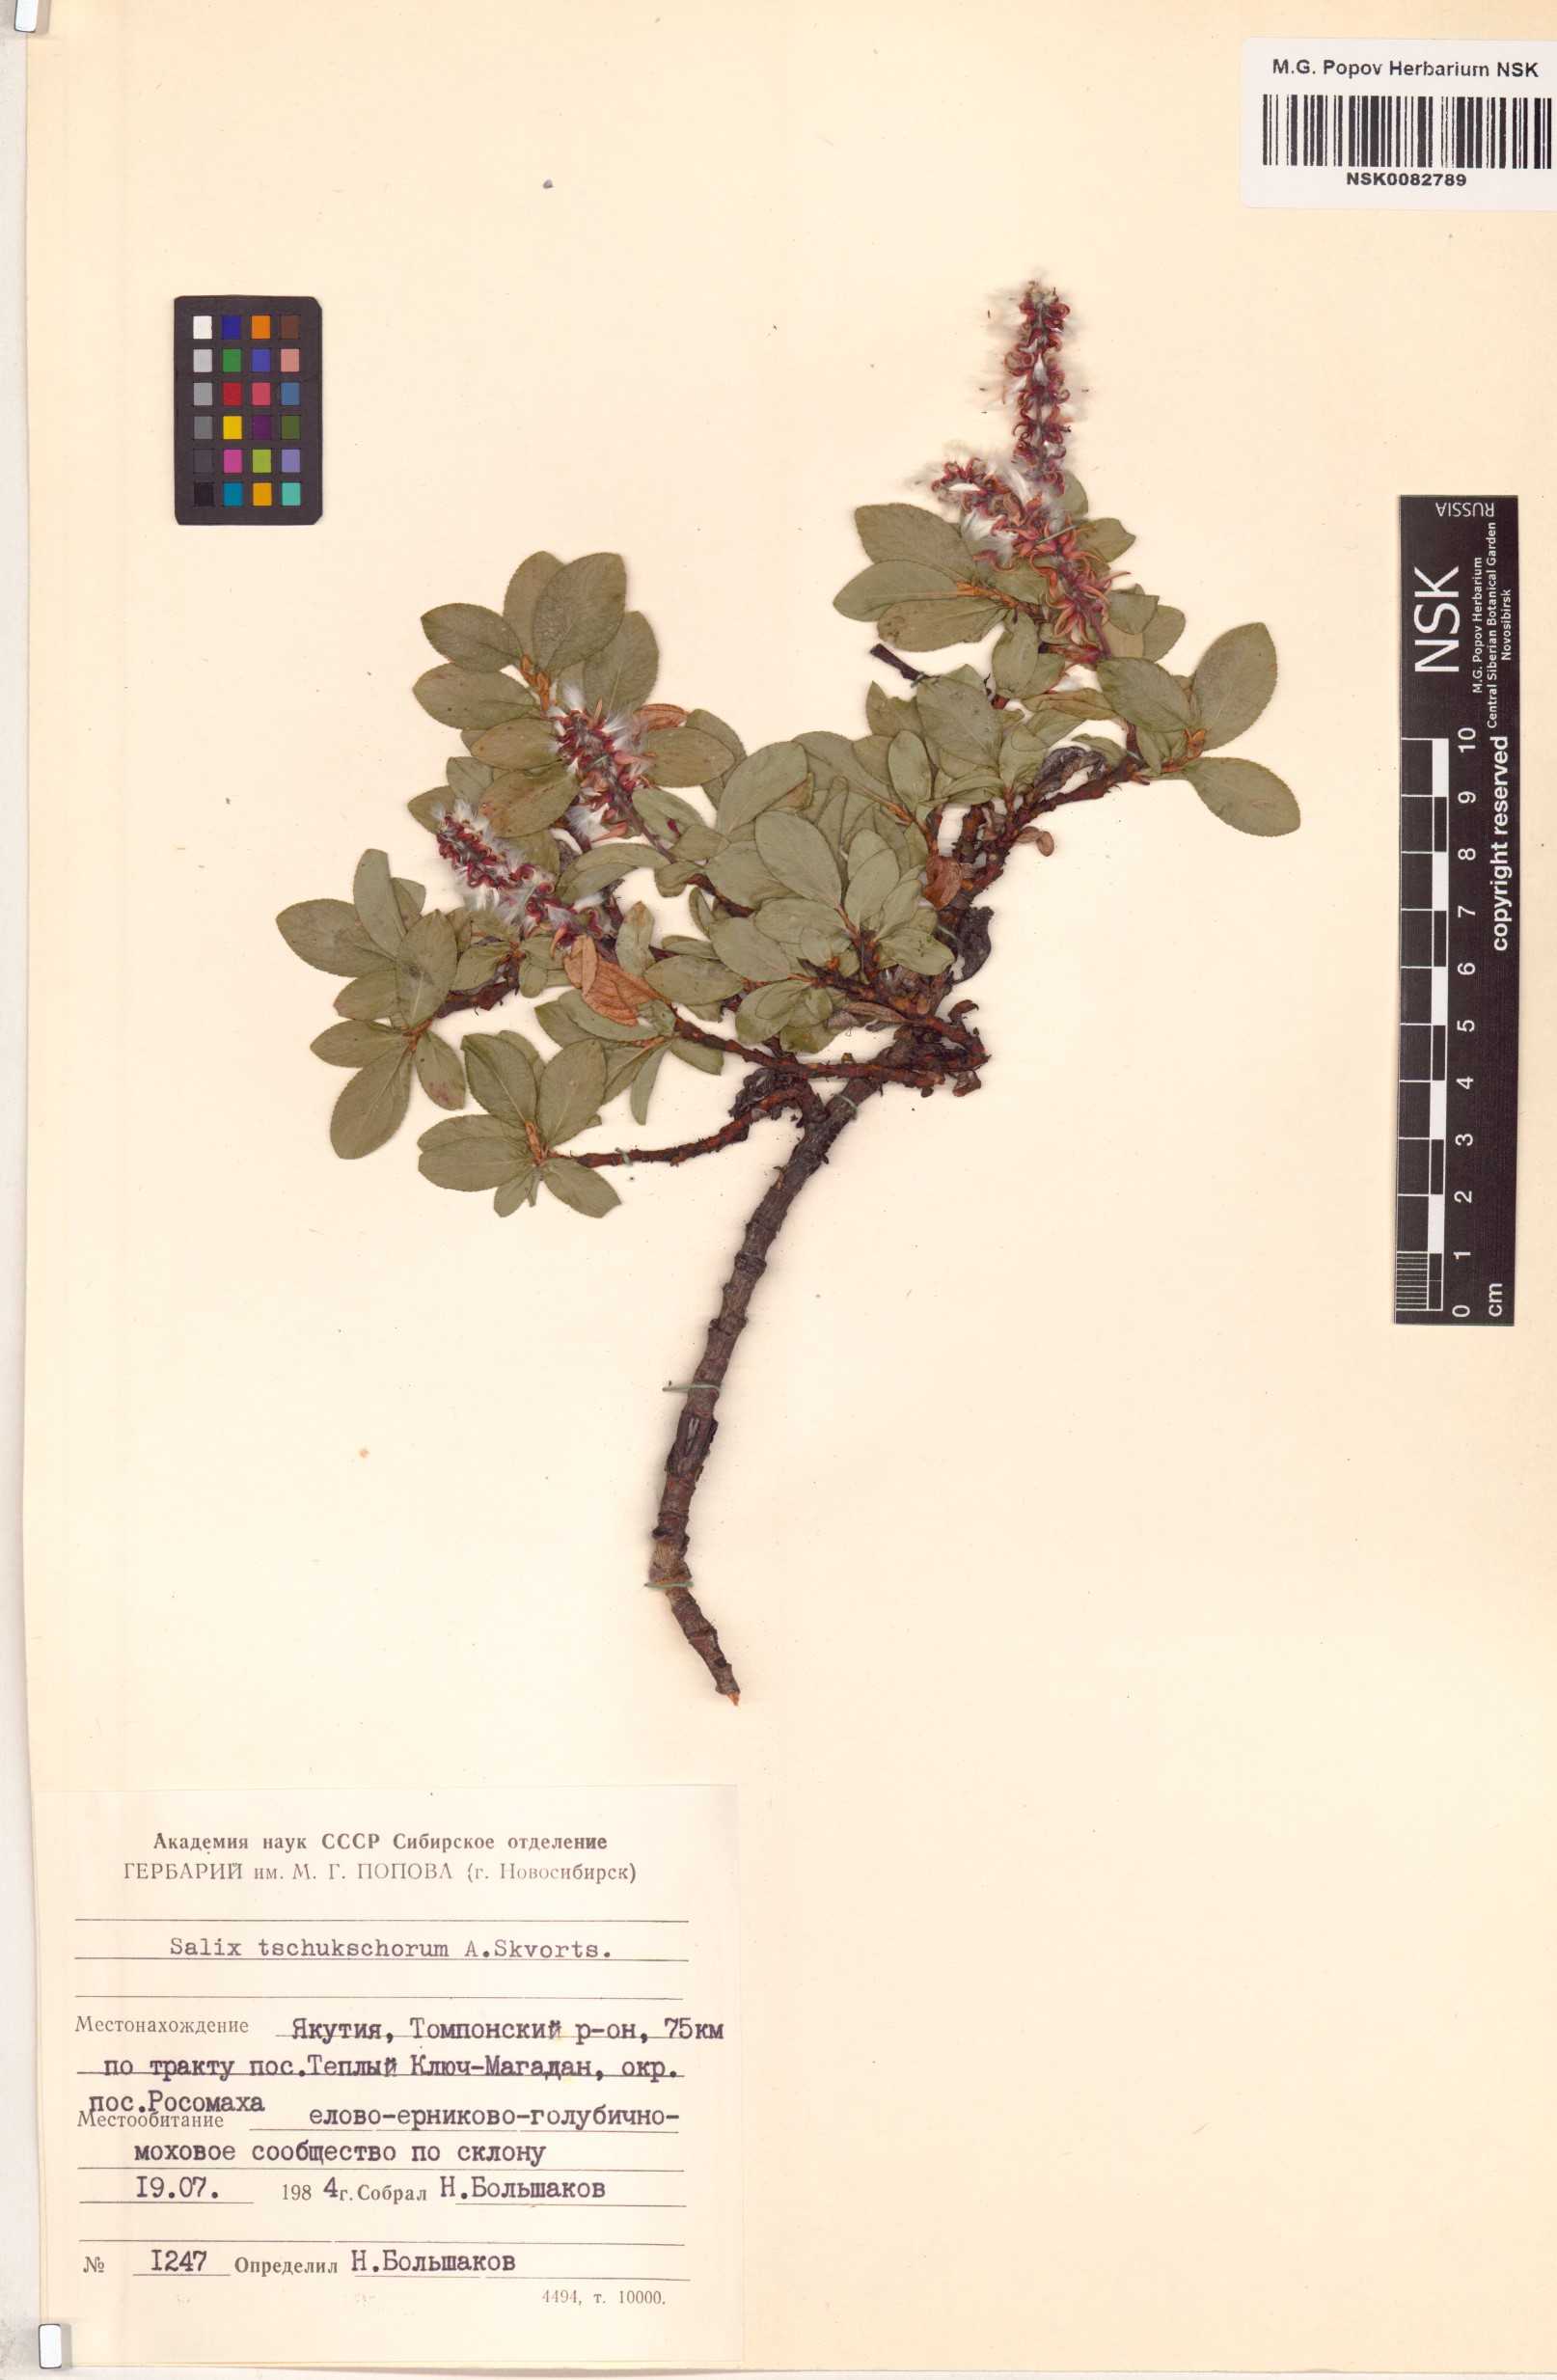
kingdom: Plantae
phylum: Tracheophyta
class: Magnoliopsida
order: Malpighiales
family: Salicaceae
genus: Salix
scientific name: Salix tschuktschorum
